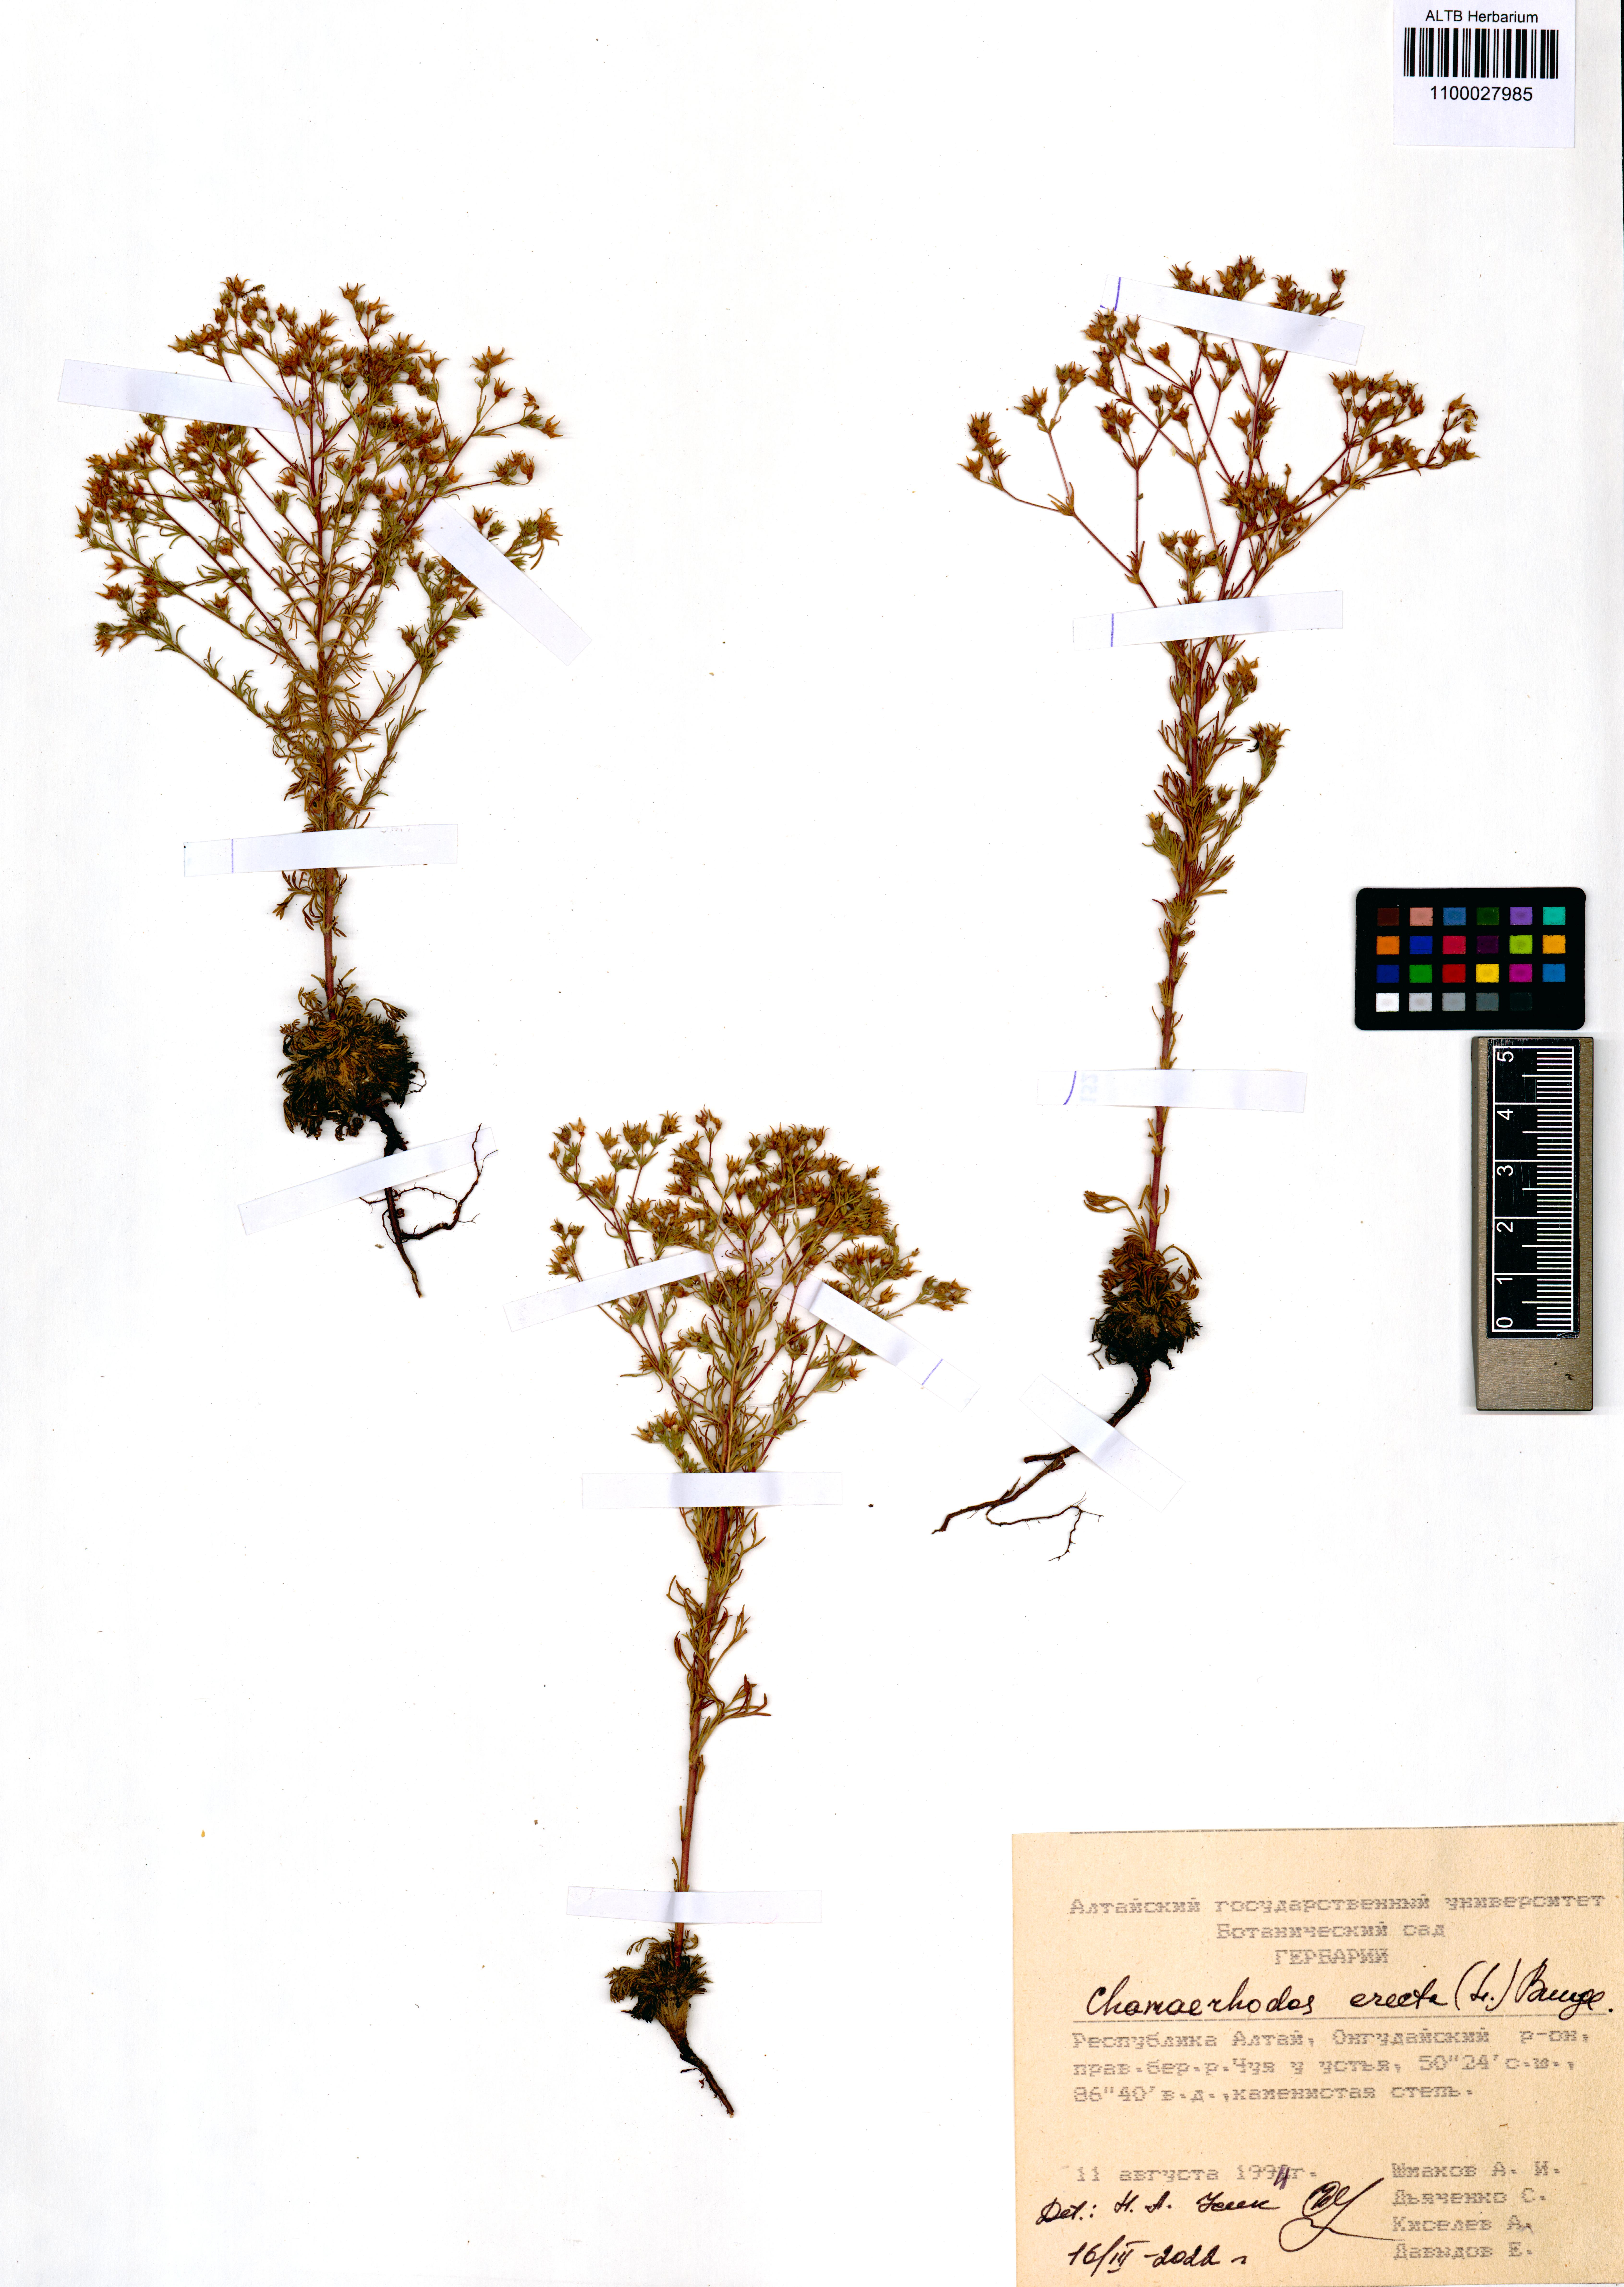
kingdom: Plantae
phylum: Tracheophyta
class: Magnoliopsida
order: Rosales
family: Rosaceae
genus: Chamaerhodos
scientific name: Chamaerhodos erecta
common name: American chamaerhodos
